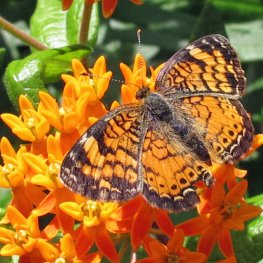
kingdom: Animalia
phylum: Arthropoda
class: Insecta
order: Lepidoptera
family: Nymphalidae
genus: Phyciodes
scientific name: Phyciodes tharos
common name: Northern Crescent
